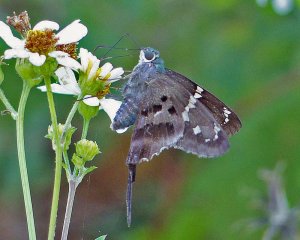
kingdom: Animalia
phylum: Arthropoda
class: Insecta
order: Lepidoptera
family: Hesperiidae
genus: Urbanus
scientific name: Urbanus proteus
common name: Long-tailed Skipper
